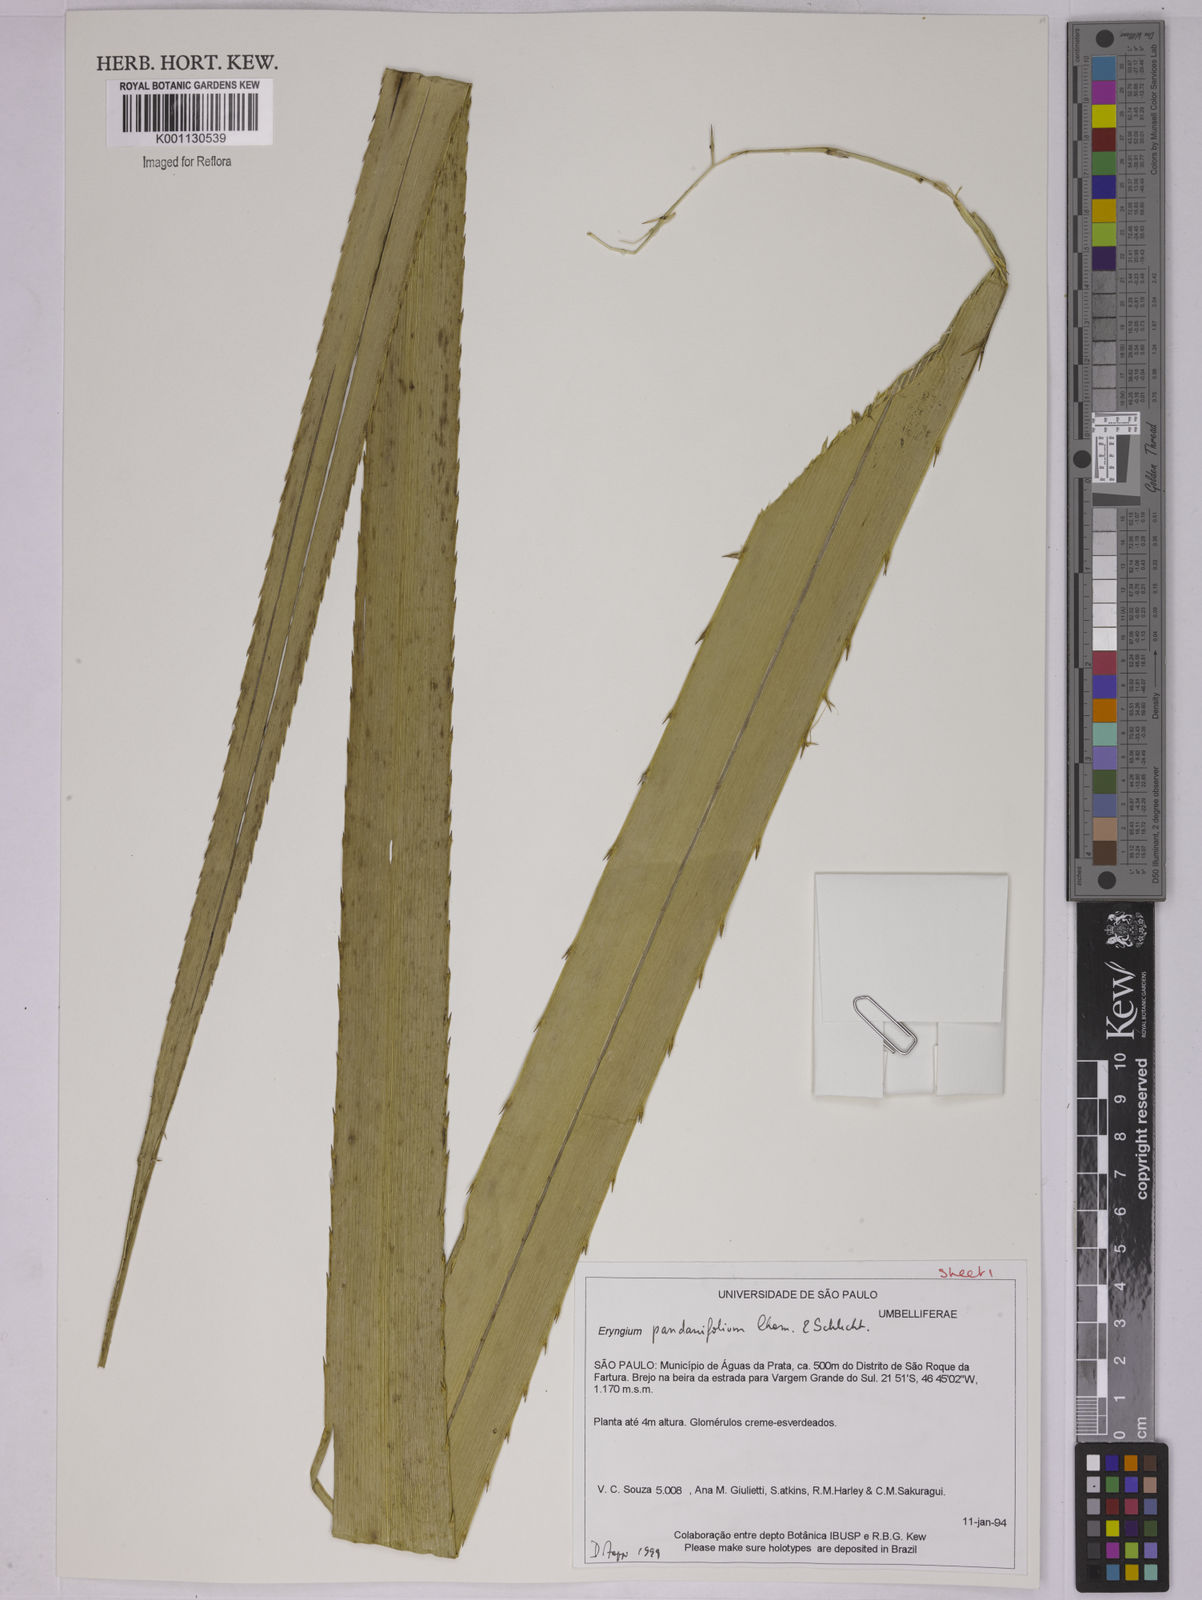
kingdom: Plantae
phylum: Tracheophyta
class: Magnoliopsida
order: Apiales
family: Apiaceae
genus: Eryngium
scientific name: Eryngium pandanifolium
